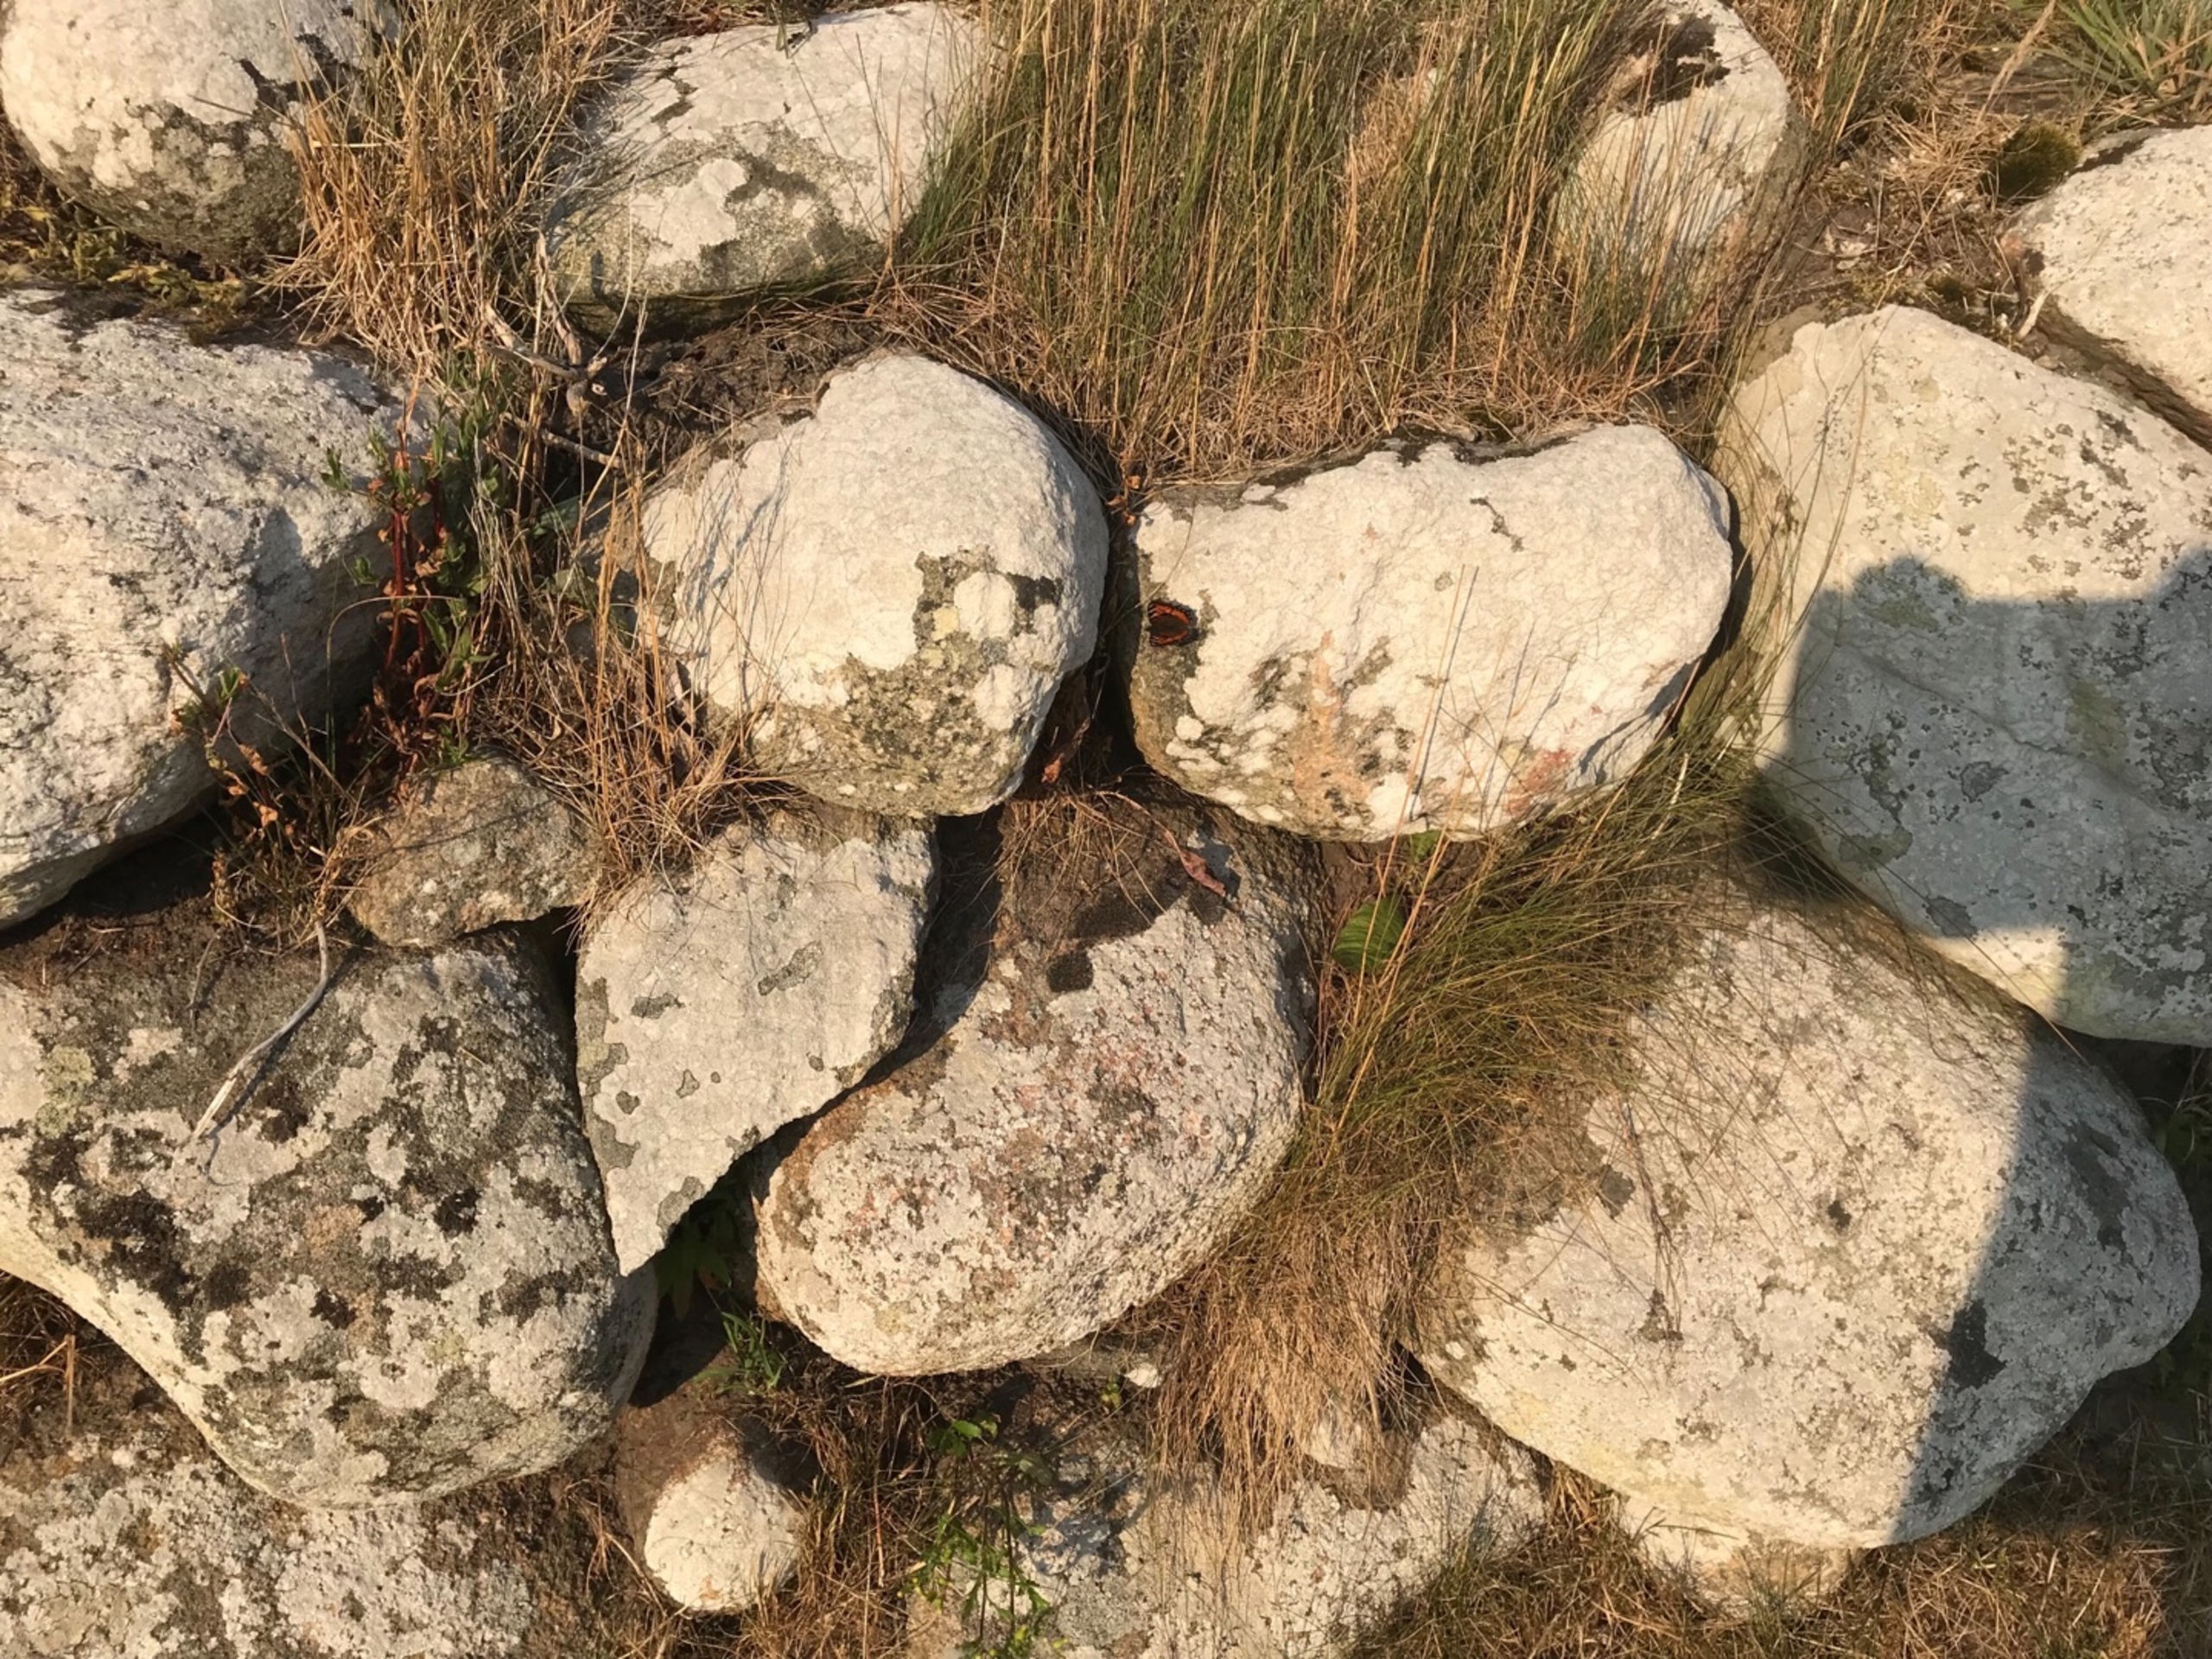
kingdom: Animalia
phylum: Arthropoda
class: Insecta
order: Lepidoptera
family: Nymphalidae
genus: Aglais
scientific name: Aglais urticae
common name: Nældens takvinge
